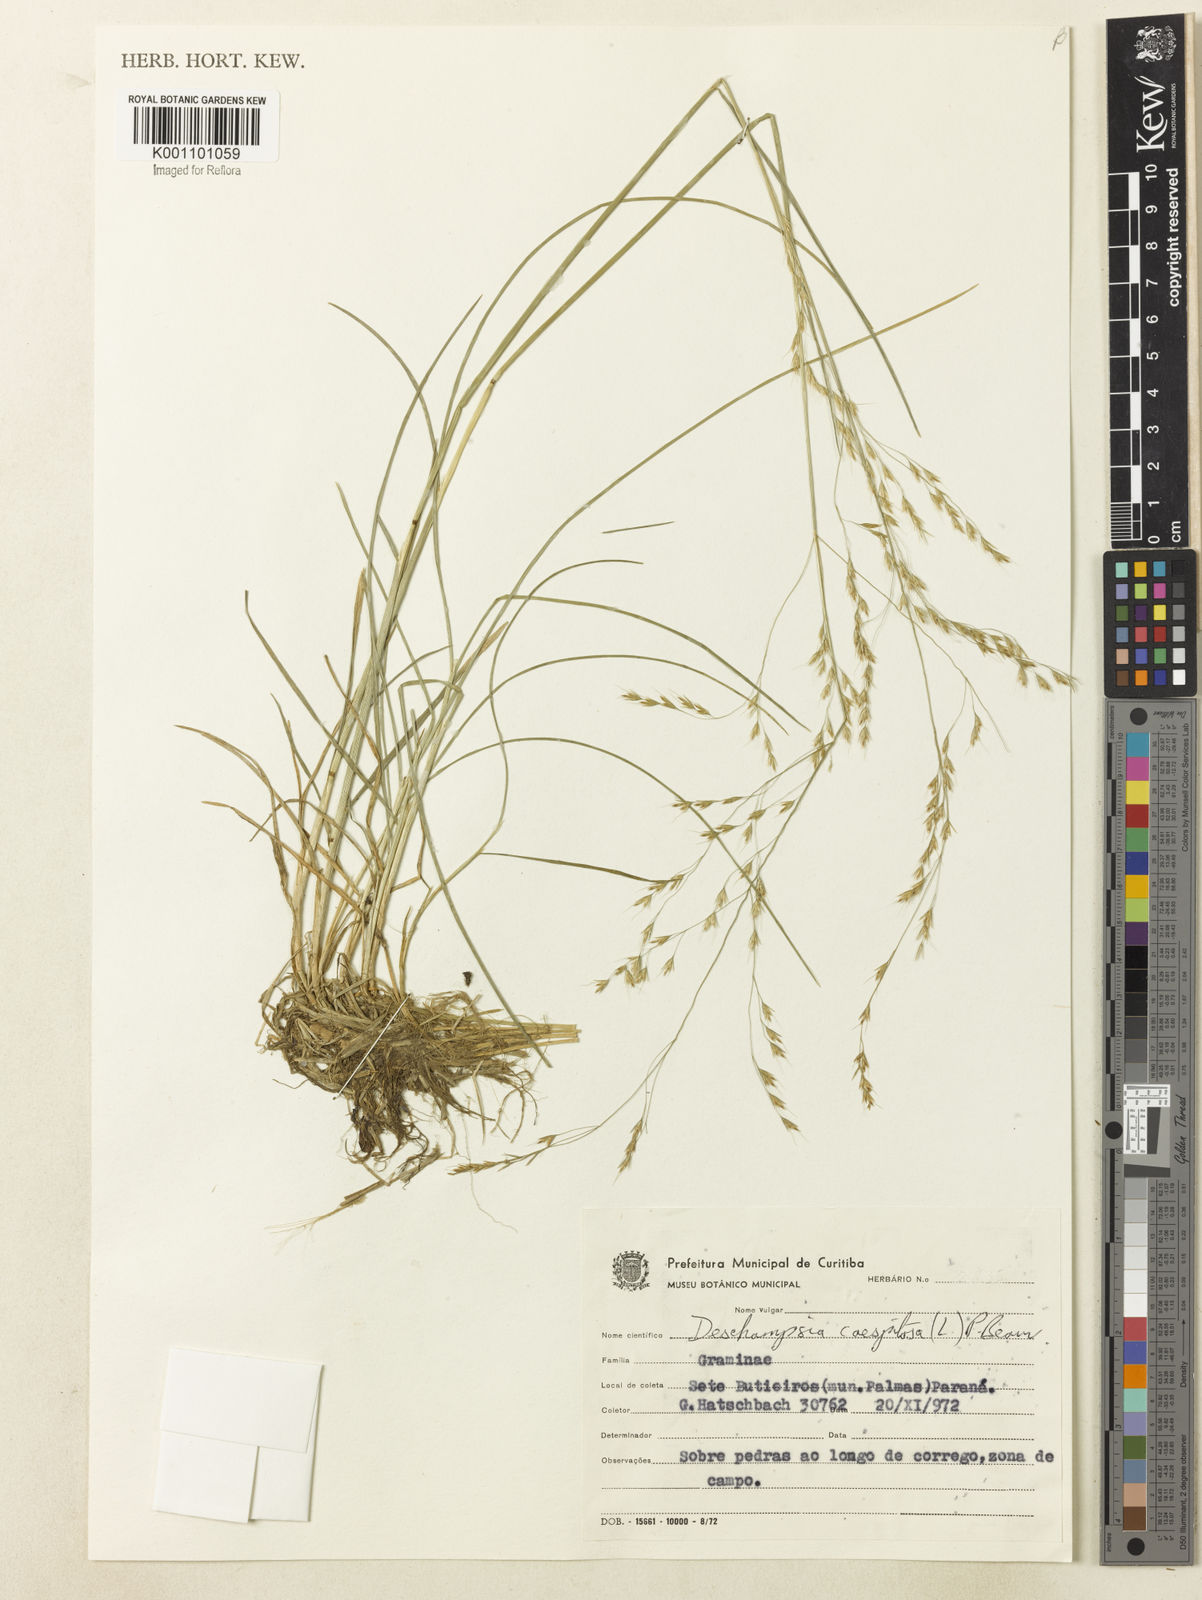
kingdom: Plantae
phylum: Tracheophyta
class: Liliopsida
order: Poales
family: Poaceae
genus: Deschampsia
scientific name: Deschampsia
